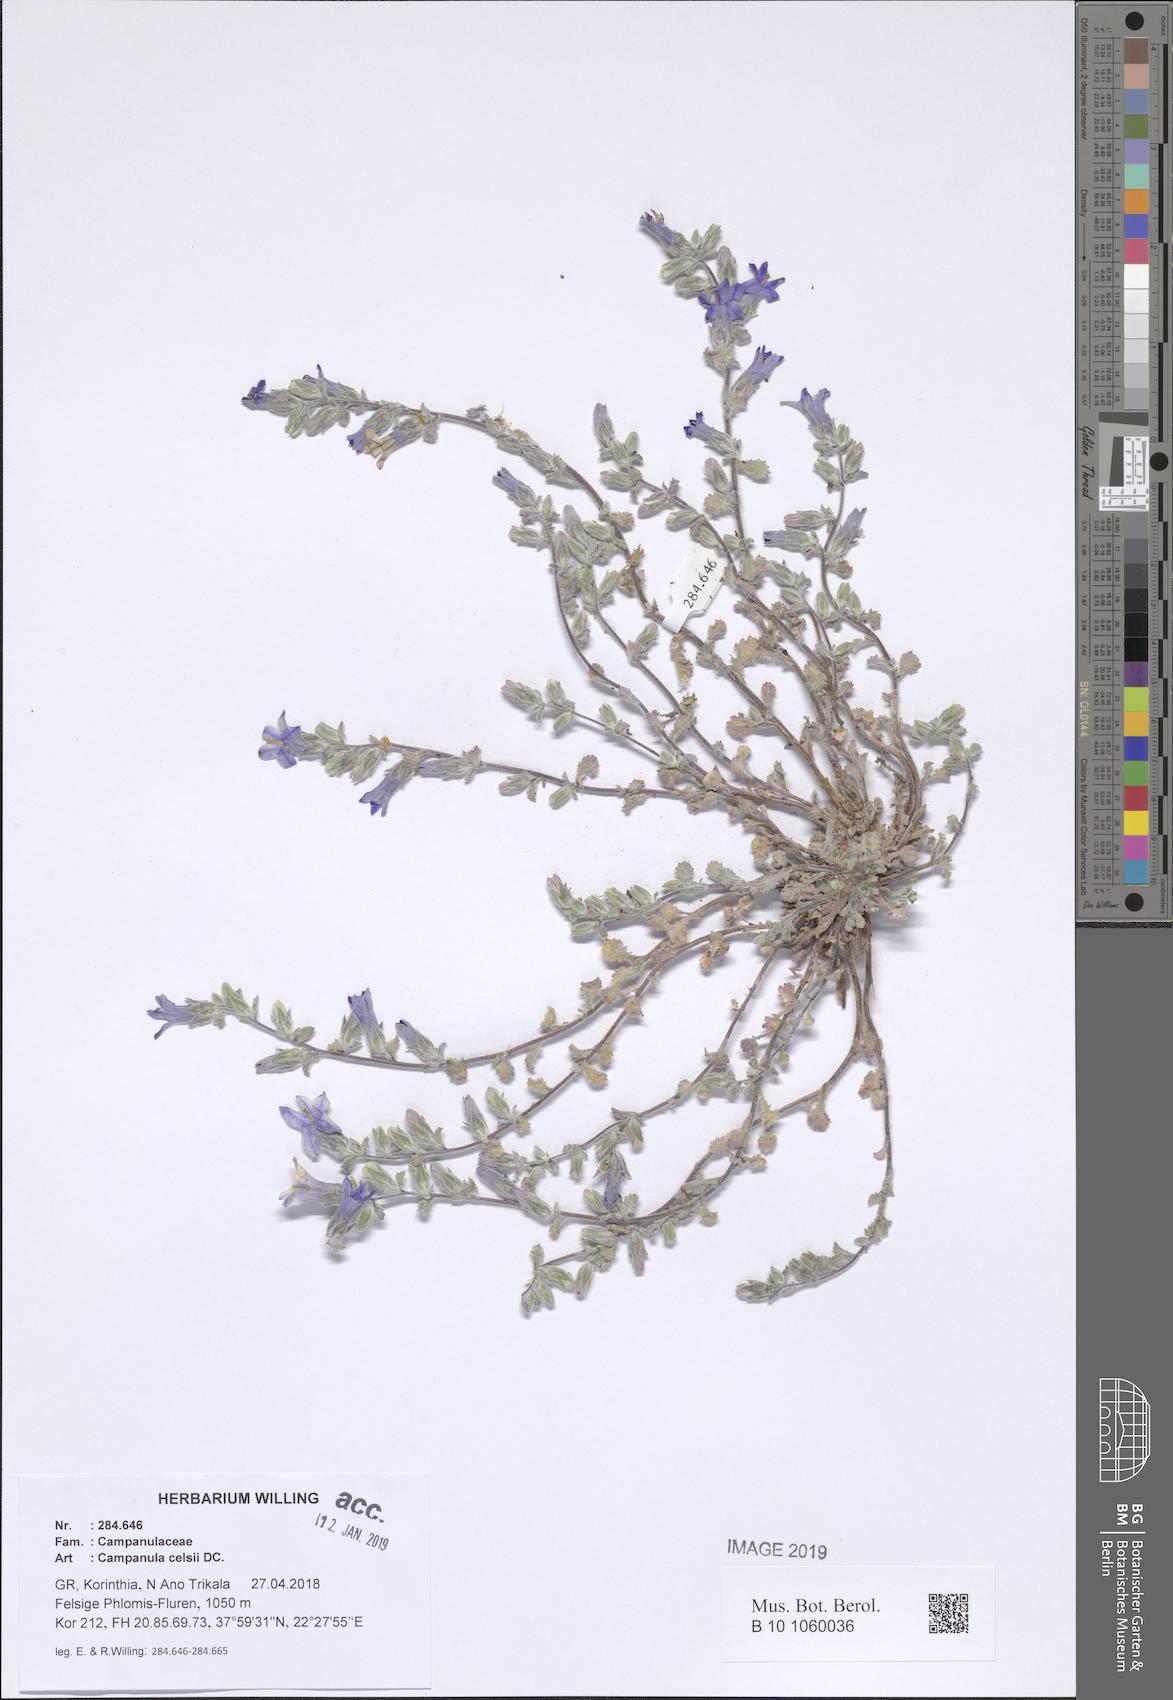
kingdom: Plantae
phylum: Tracheophyta
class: Magnoliopsida
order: Asterales
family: Campanulaceae
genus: Campanula
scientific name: Campanula celsii
